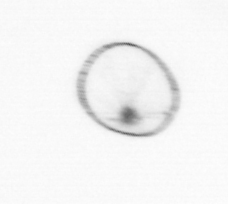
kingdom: Chromista
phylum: Myzozoa
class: Dinophyceae
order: Noctilucales
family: Noctilucaceae
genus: Noctiluca
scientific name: Noctiluca scintillans
